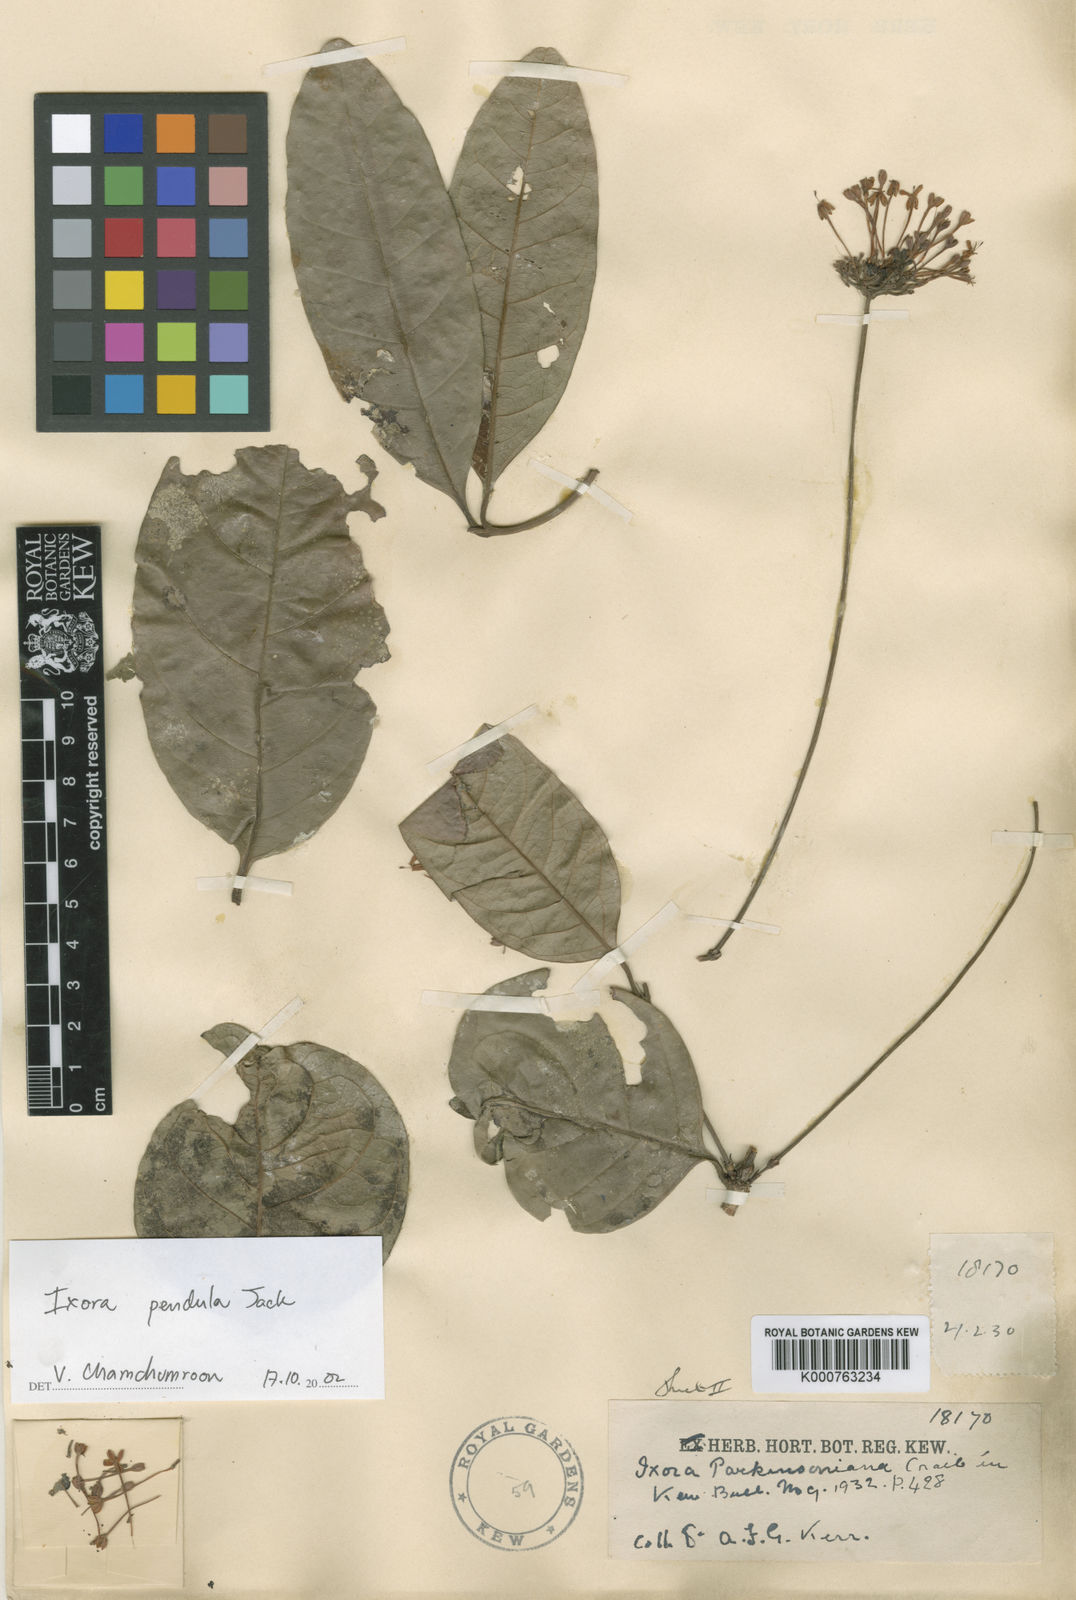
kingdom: Plantae
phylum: Tracheophyta
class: Magnoliopsida
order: Gentianales
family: Rubiaceae
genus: Ixora
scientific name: Ixora pendula
